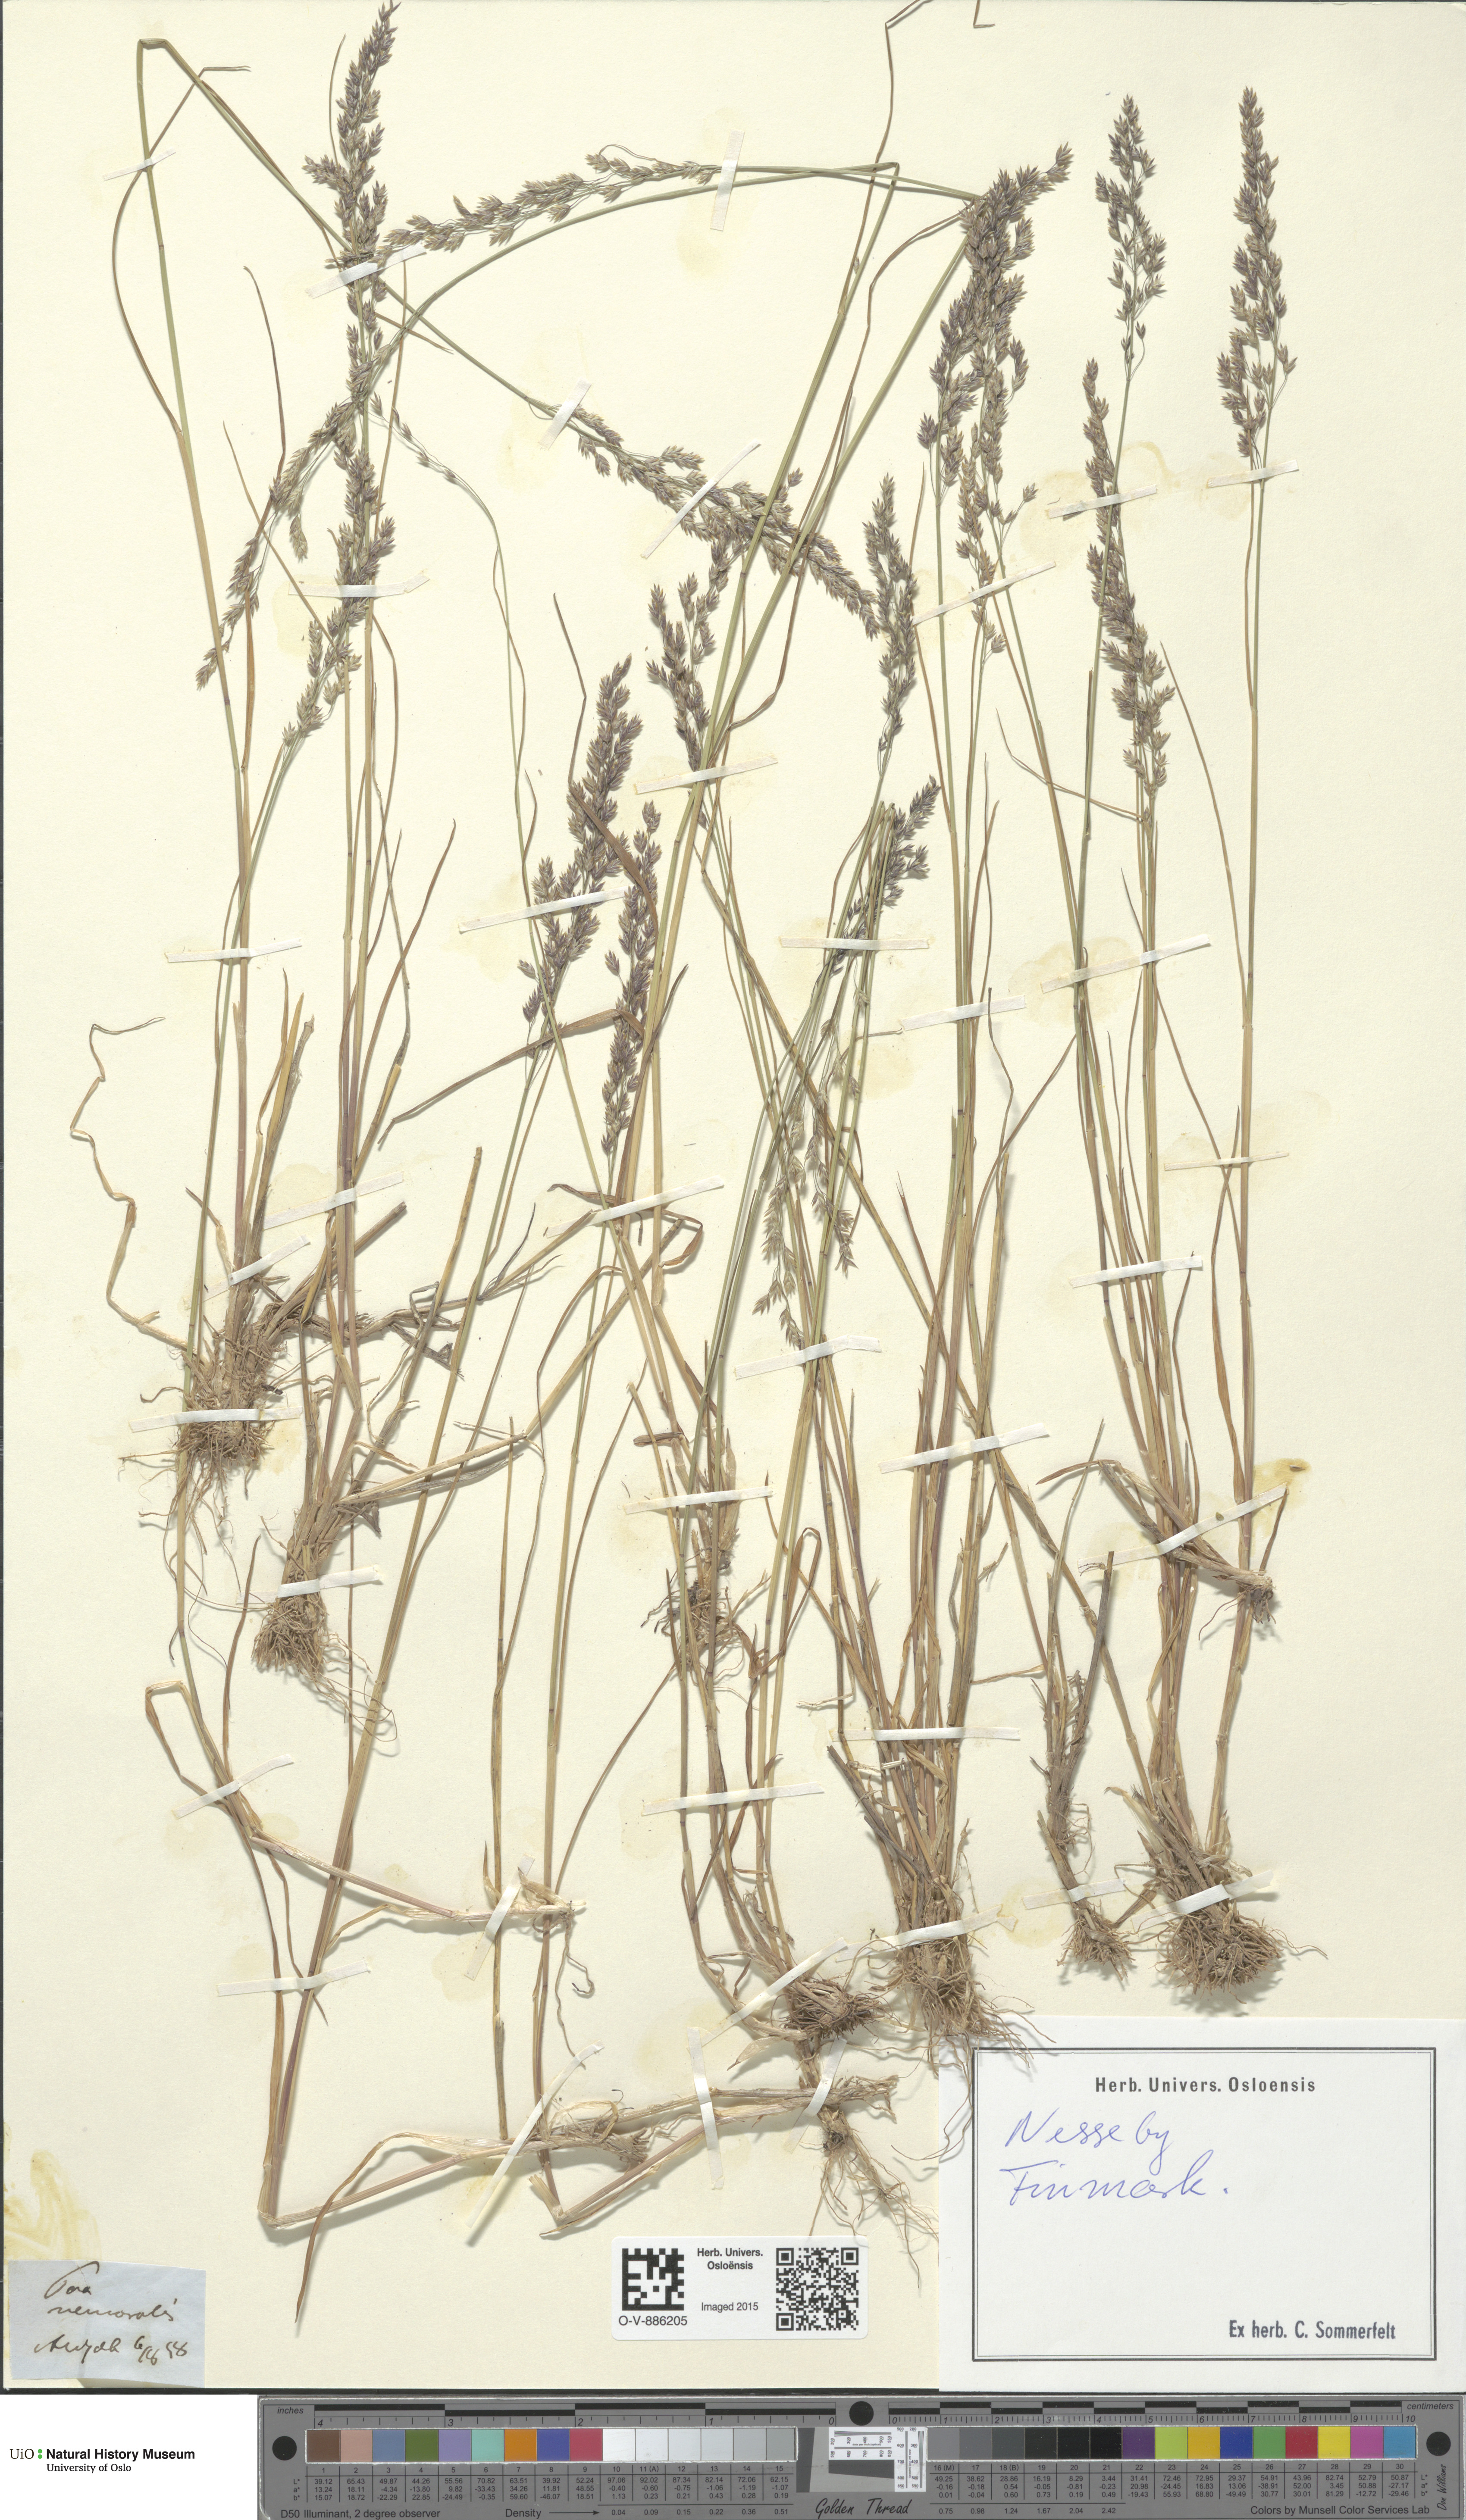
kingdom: Plantae
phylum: Tracheophyta
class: Liliopsida
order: Poales
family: Poaceae
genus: Poa
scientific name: Poa nemoralis
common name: Wood bluegrass
